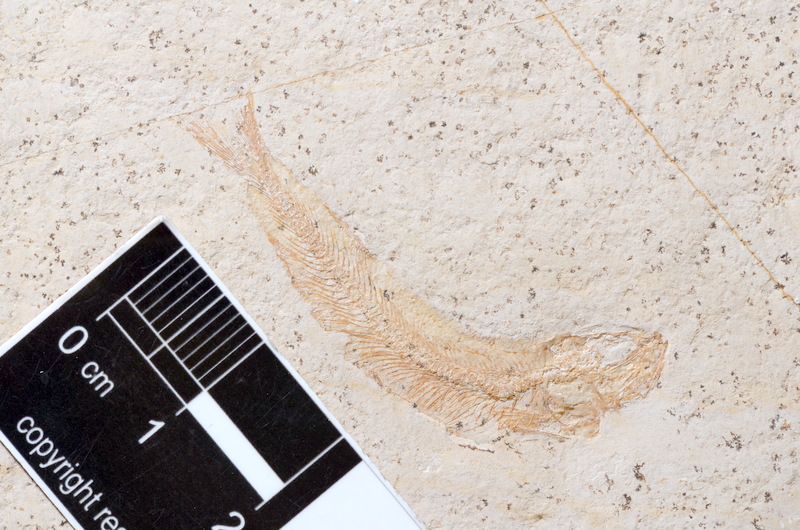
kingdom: Animalia
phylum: Chordata
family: Allothrissopidae
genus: Allothrissops
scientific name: Allothrissops mesogaster
